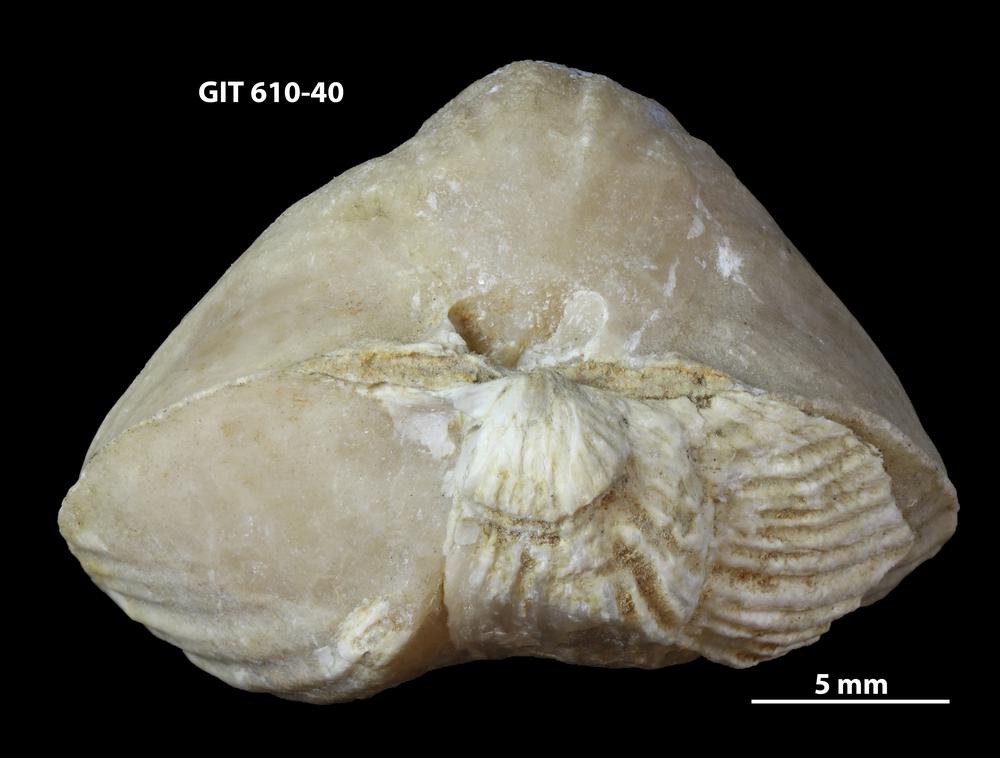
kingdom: Animalia
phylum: Brachiopoda
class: Rhynchonellata
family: Triplesiidae
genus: Cliftonia
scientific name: Cliftonia
